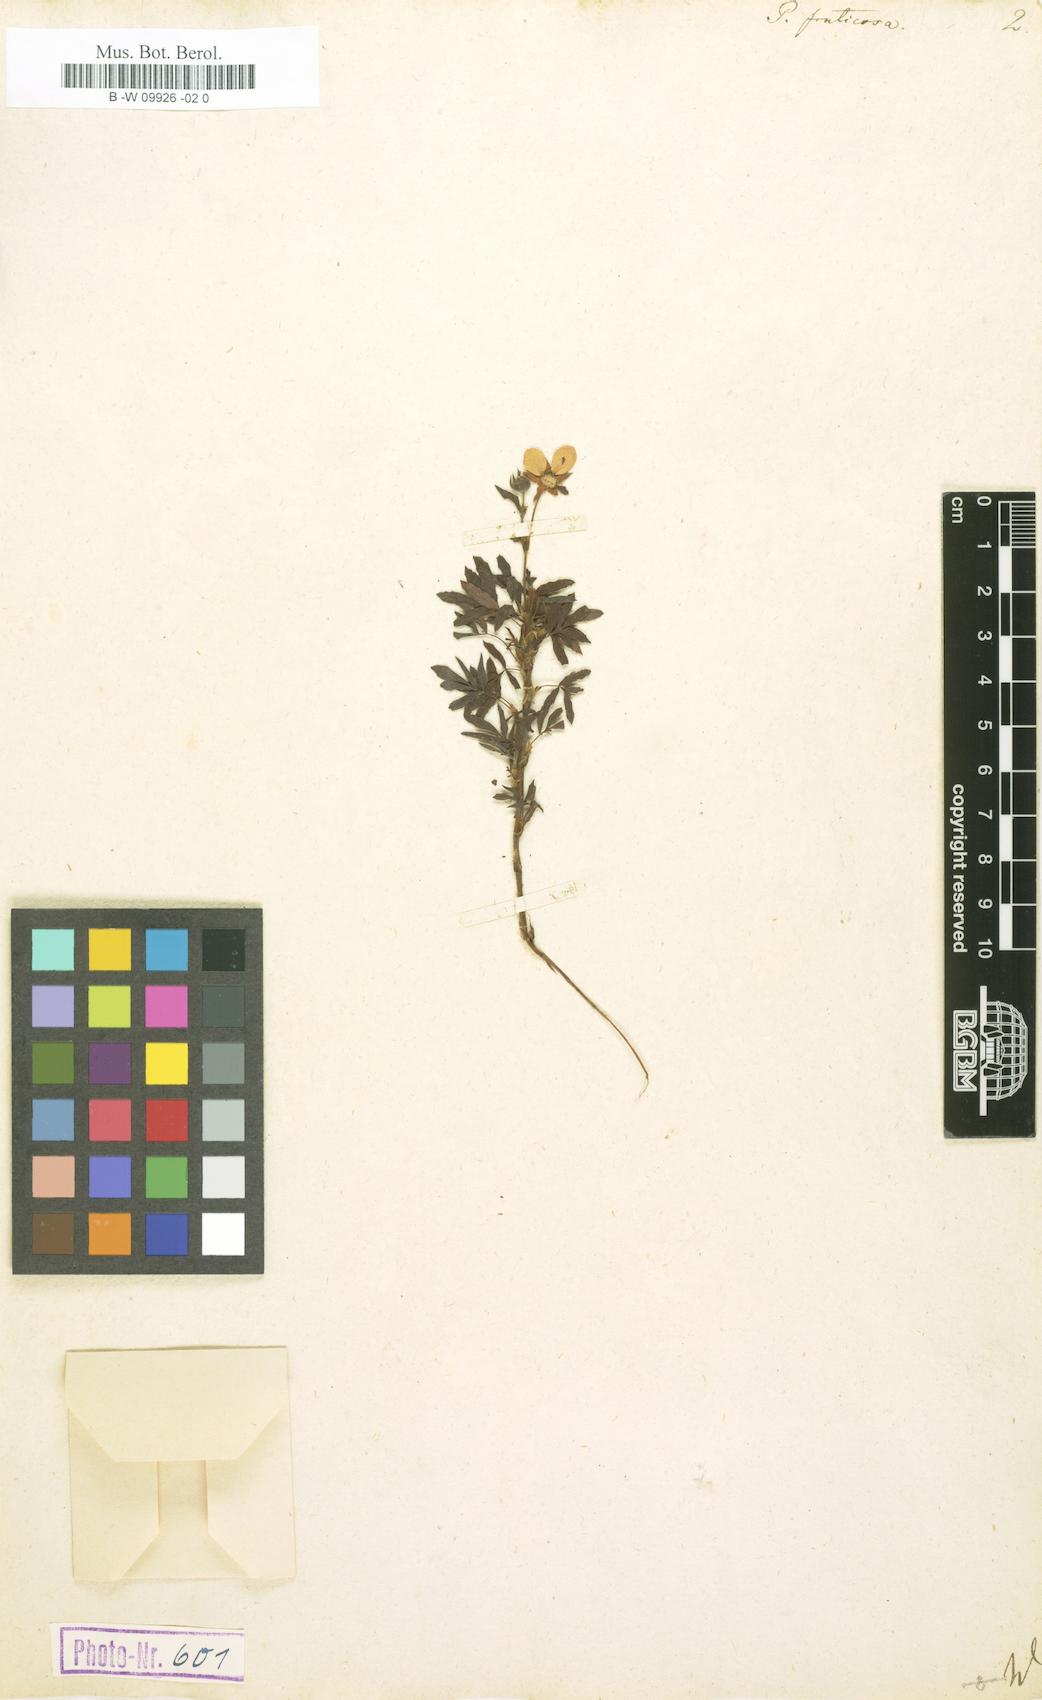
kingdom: Plantae
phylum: Tracheophyta
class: Magnoliopsida
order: Rosales
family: Rosaceae
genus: Dasiphora
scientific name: Dasiphora fruticosa
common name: Shrubby cinquefoil
